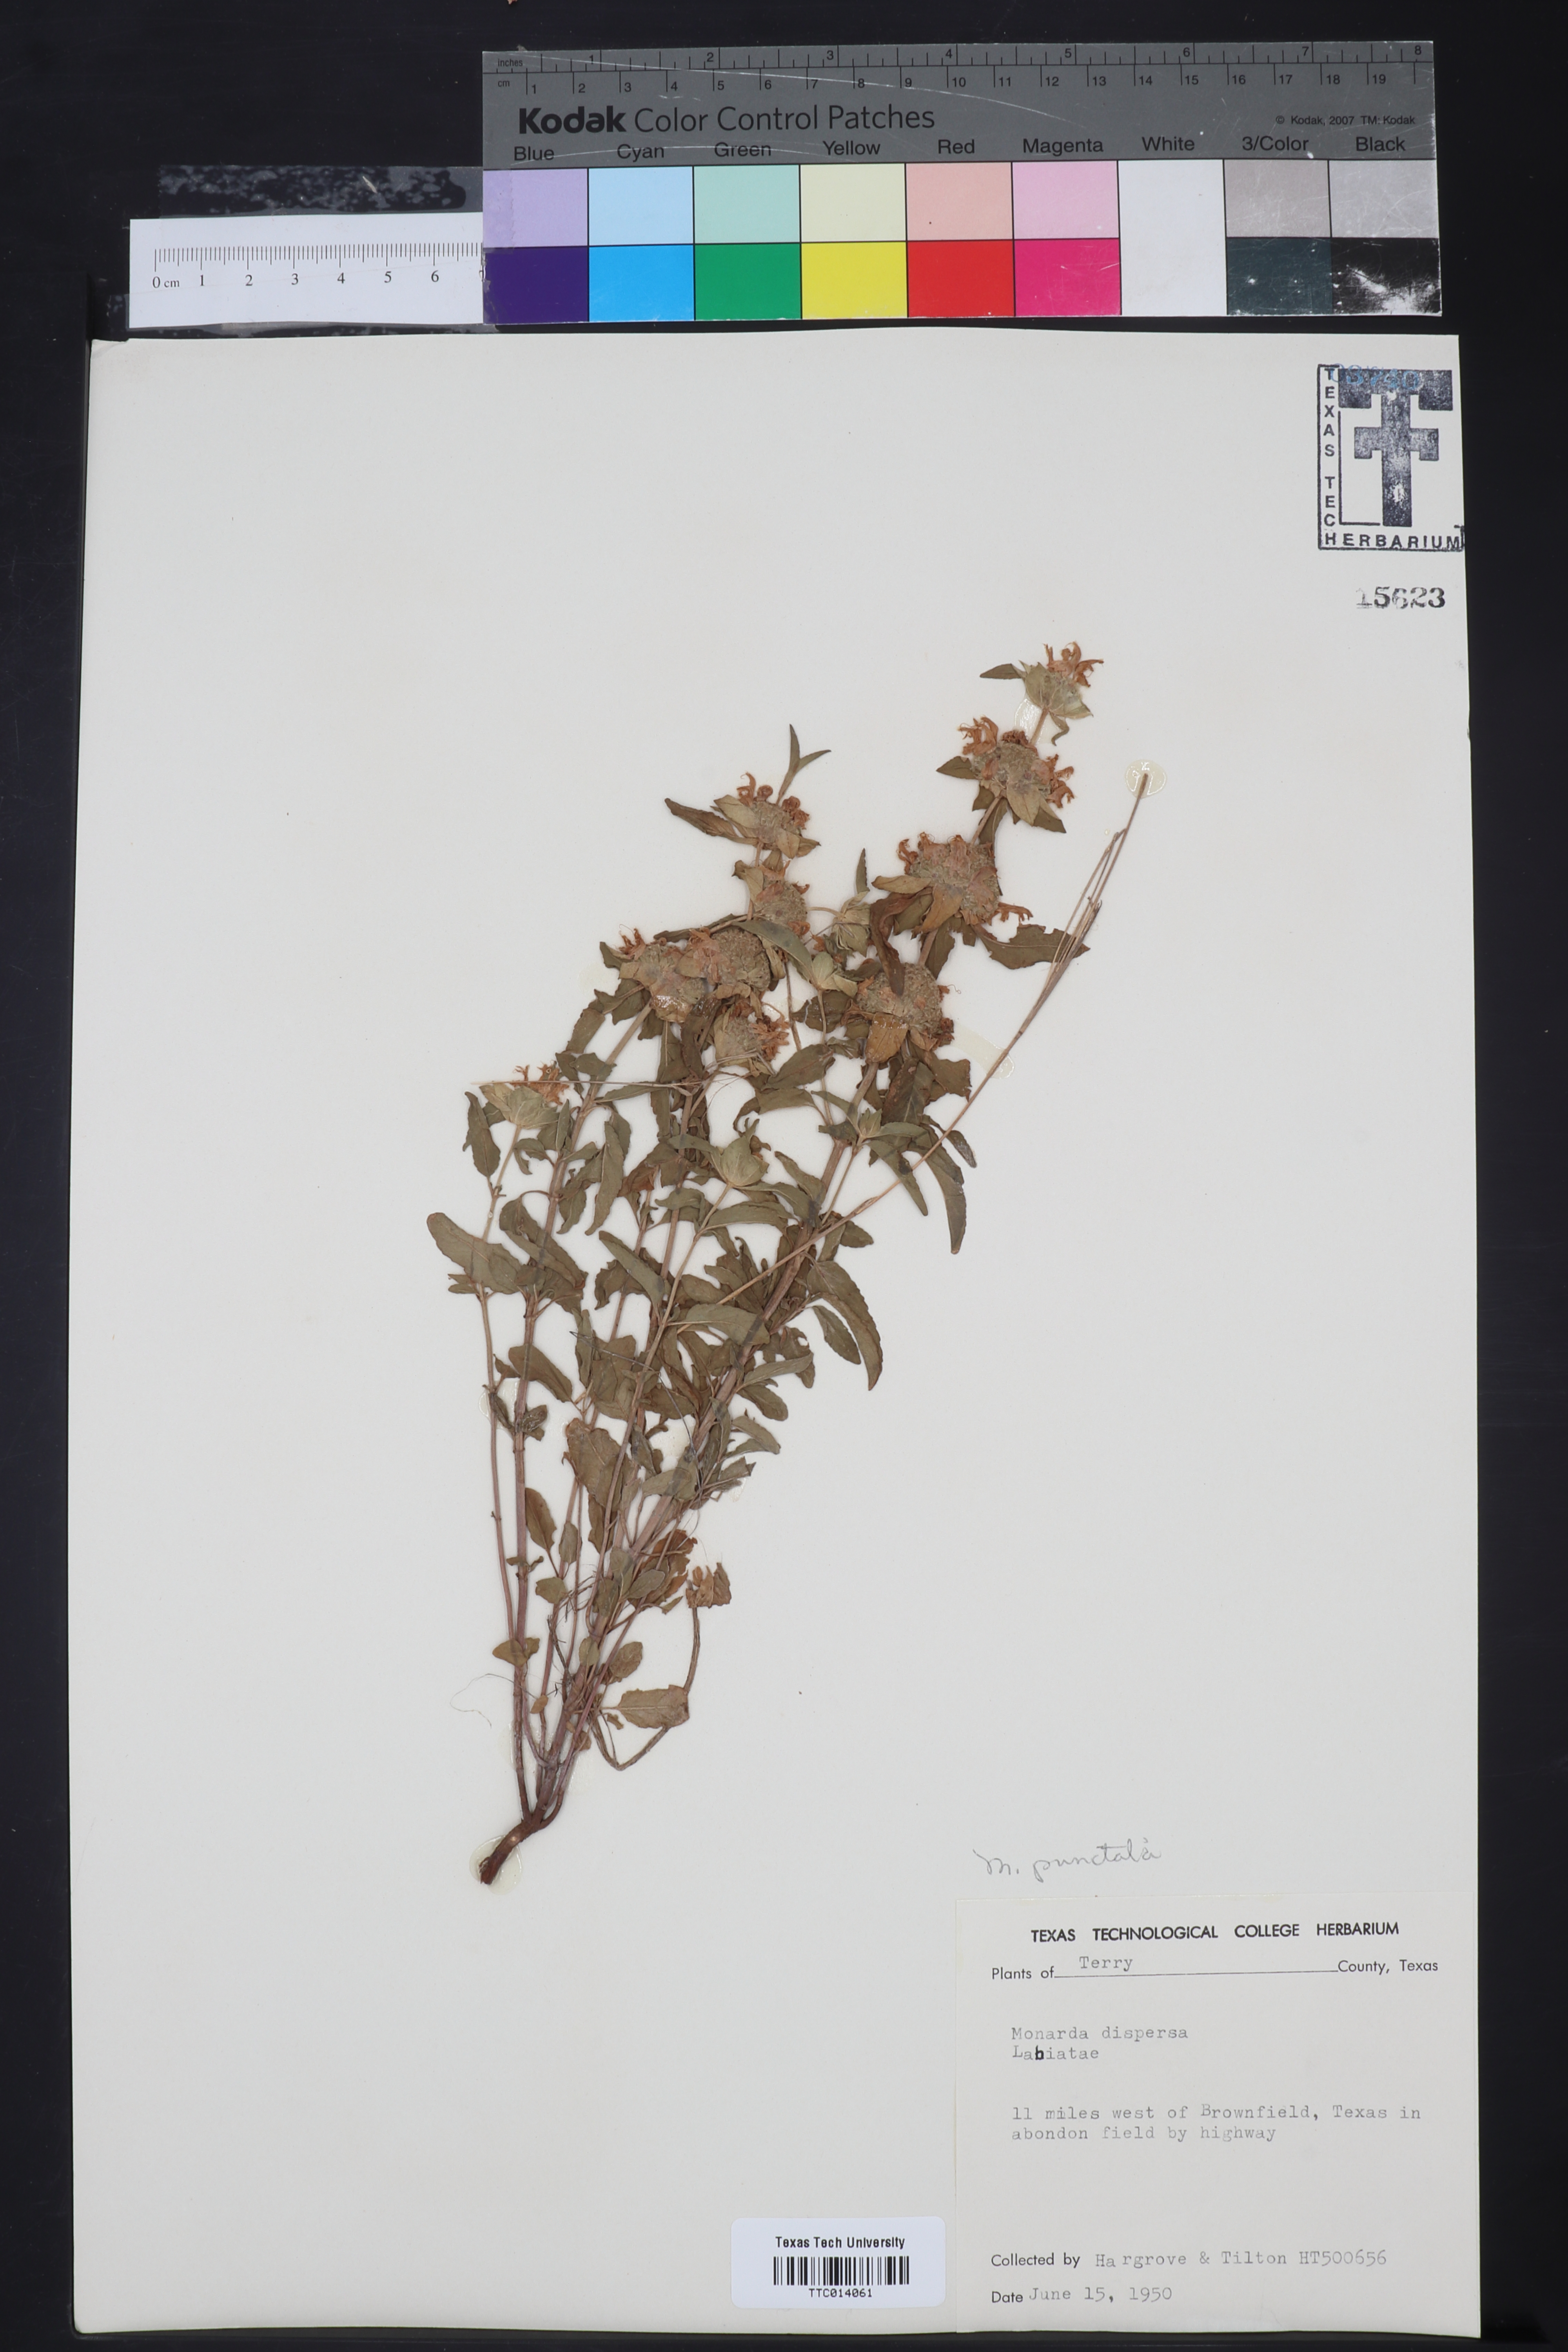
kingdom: Plantae
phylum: Tracheophyta
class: Magnoliopsida
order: Lamiales
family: Lamiaceae
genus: Monarda
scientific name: Monarda punctata
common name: Dotted monarda
